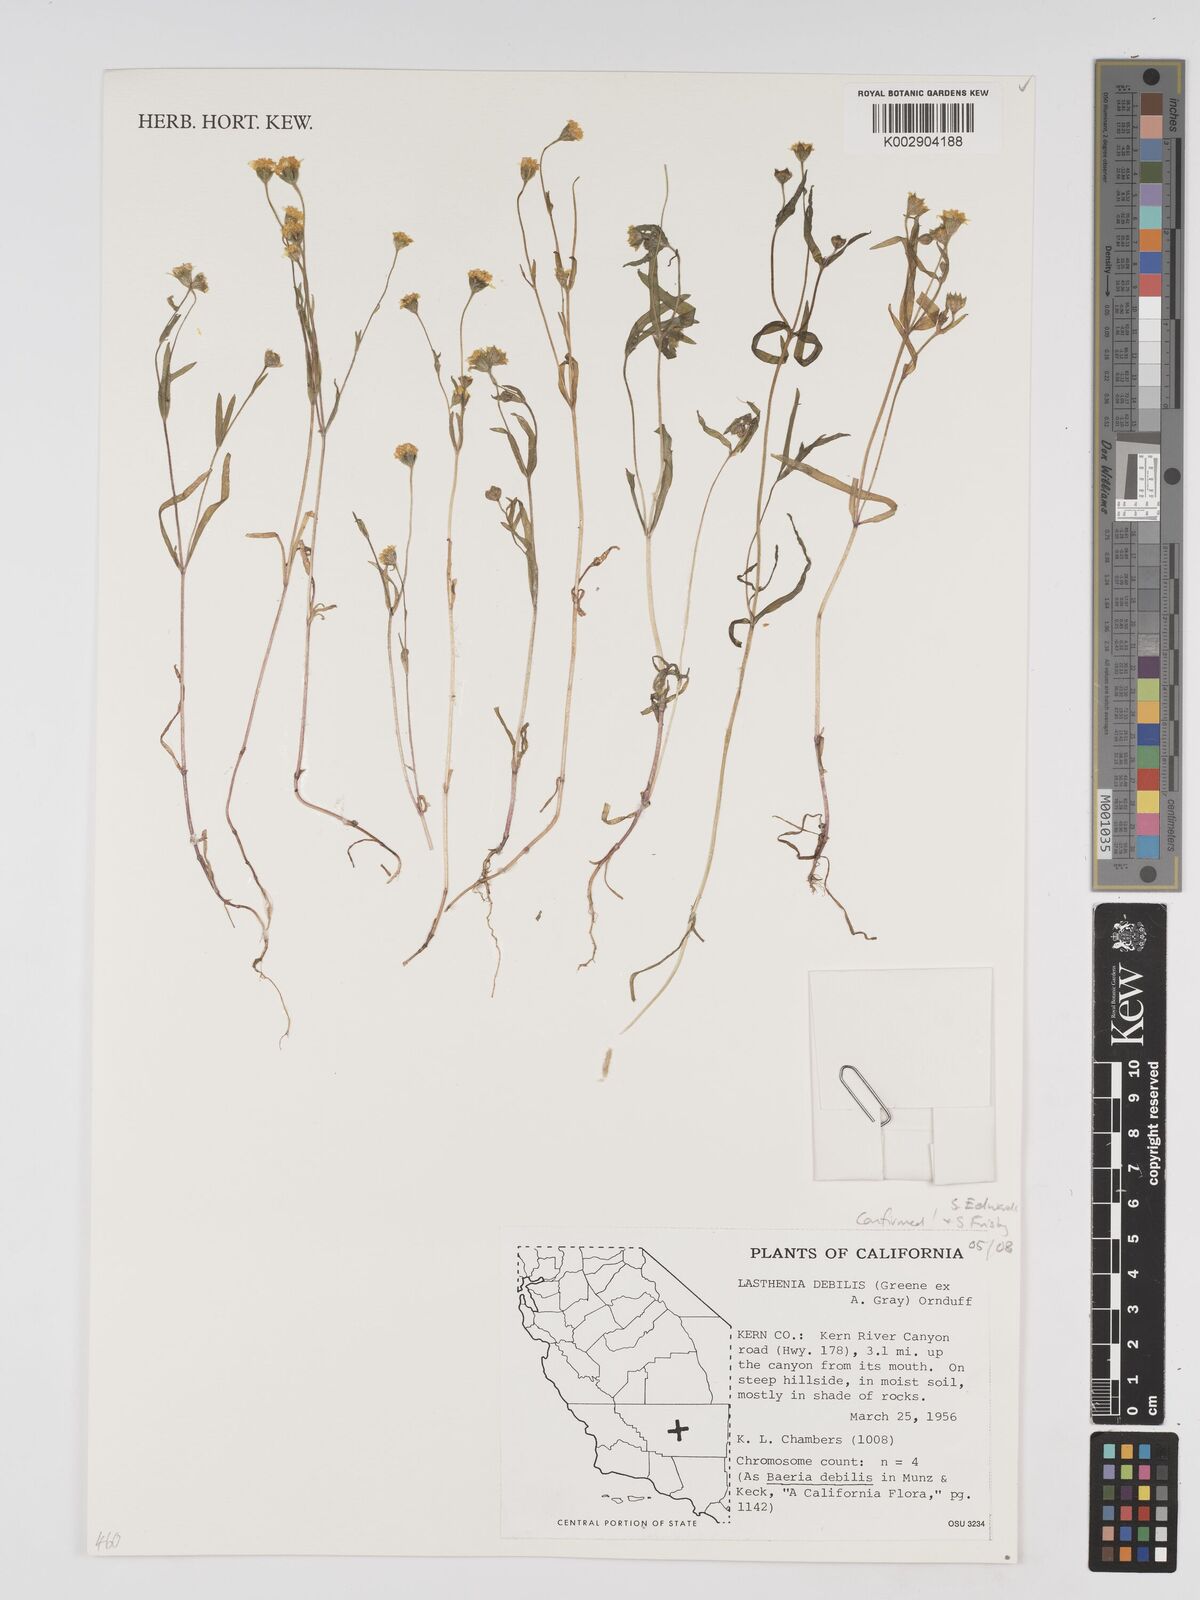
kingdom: Plantae
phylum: Tracheophyta
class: Magnoliopsida
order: Asterales
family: Asteraceae
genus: Lasthenia
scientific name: Lasthenia debilis
